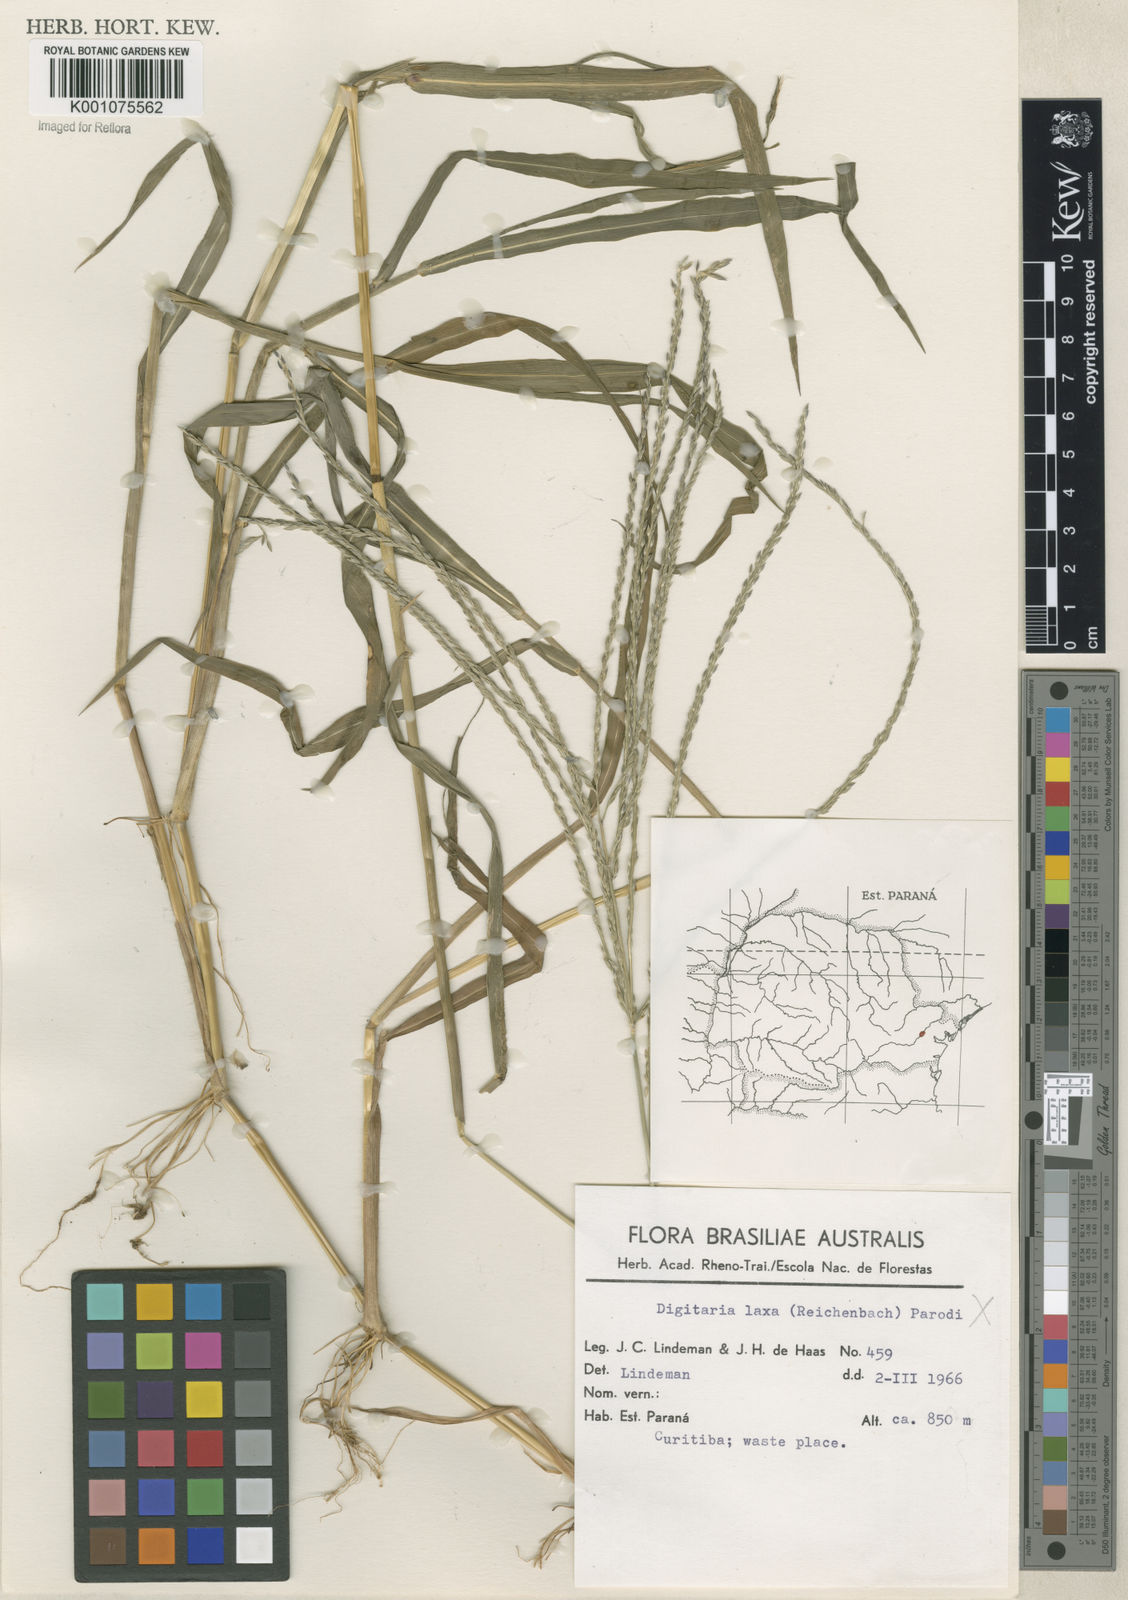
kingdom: Plantae
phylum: Tracheophyta
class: Liliopsida
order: Poales
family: Poaceae
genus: Digitaria
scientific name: Digitaria ciliaris
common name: Tropical finger-grass
